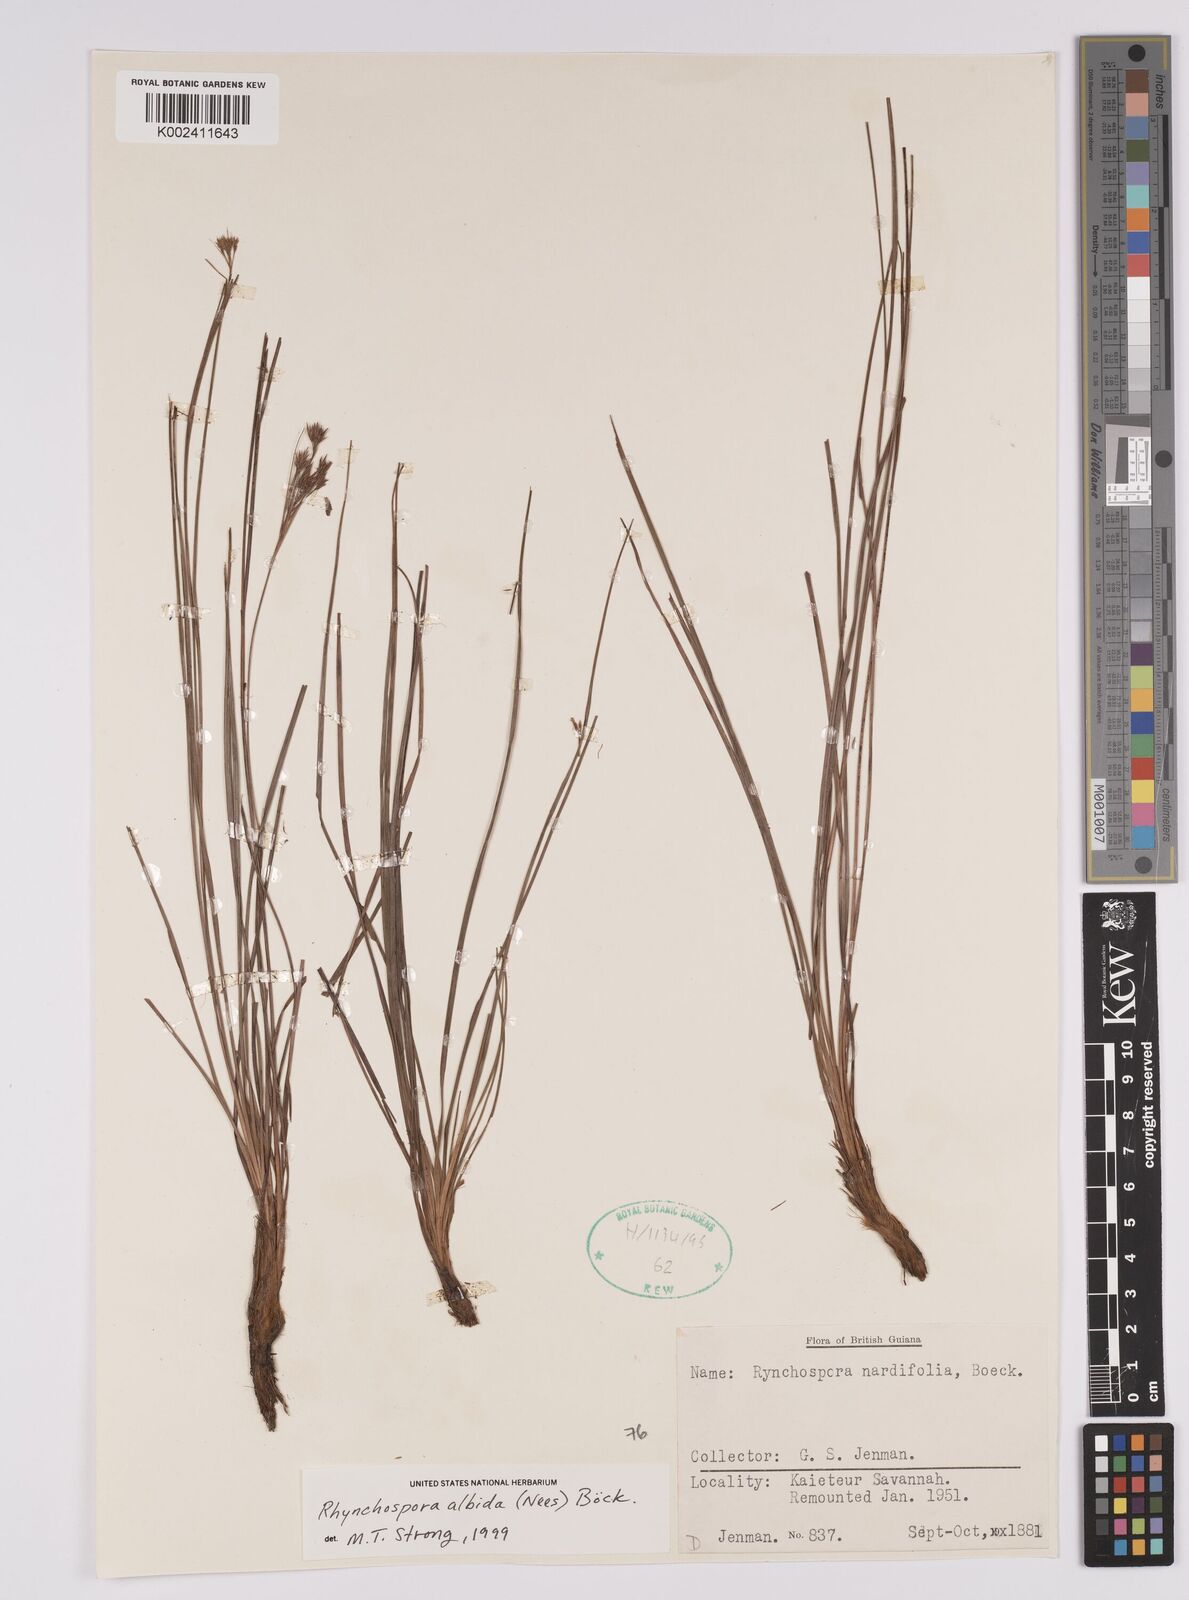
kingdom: Plantae
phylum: Tracheophyta
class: Liliopsida
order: Poales
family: Cyperaceae
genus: Rhynchospora
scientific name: Rhynchospora albida
